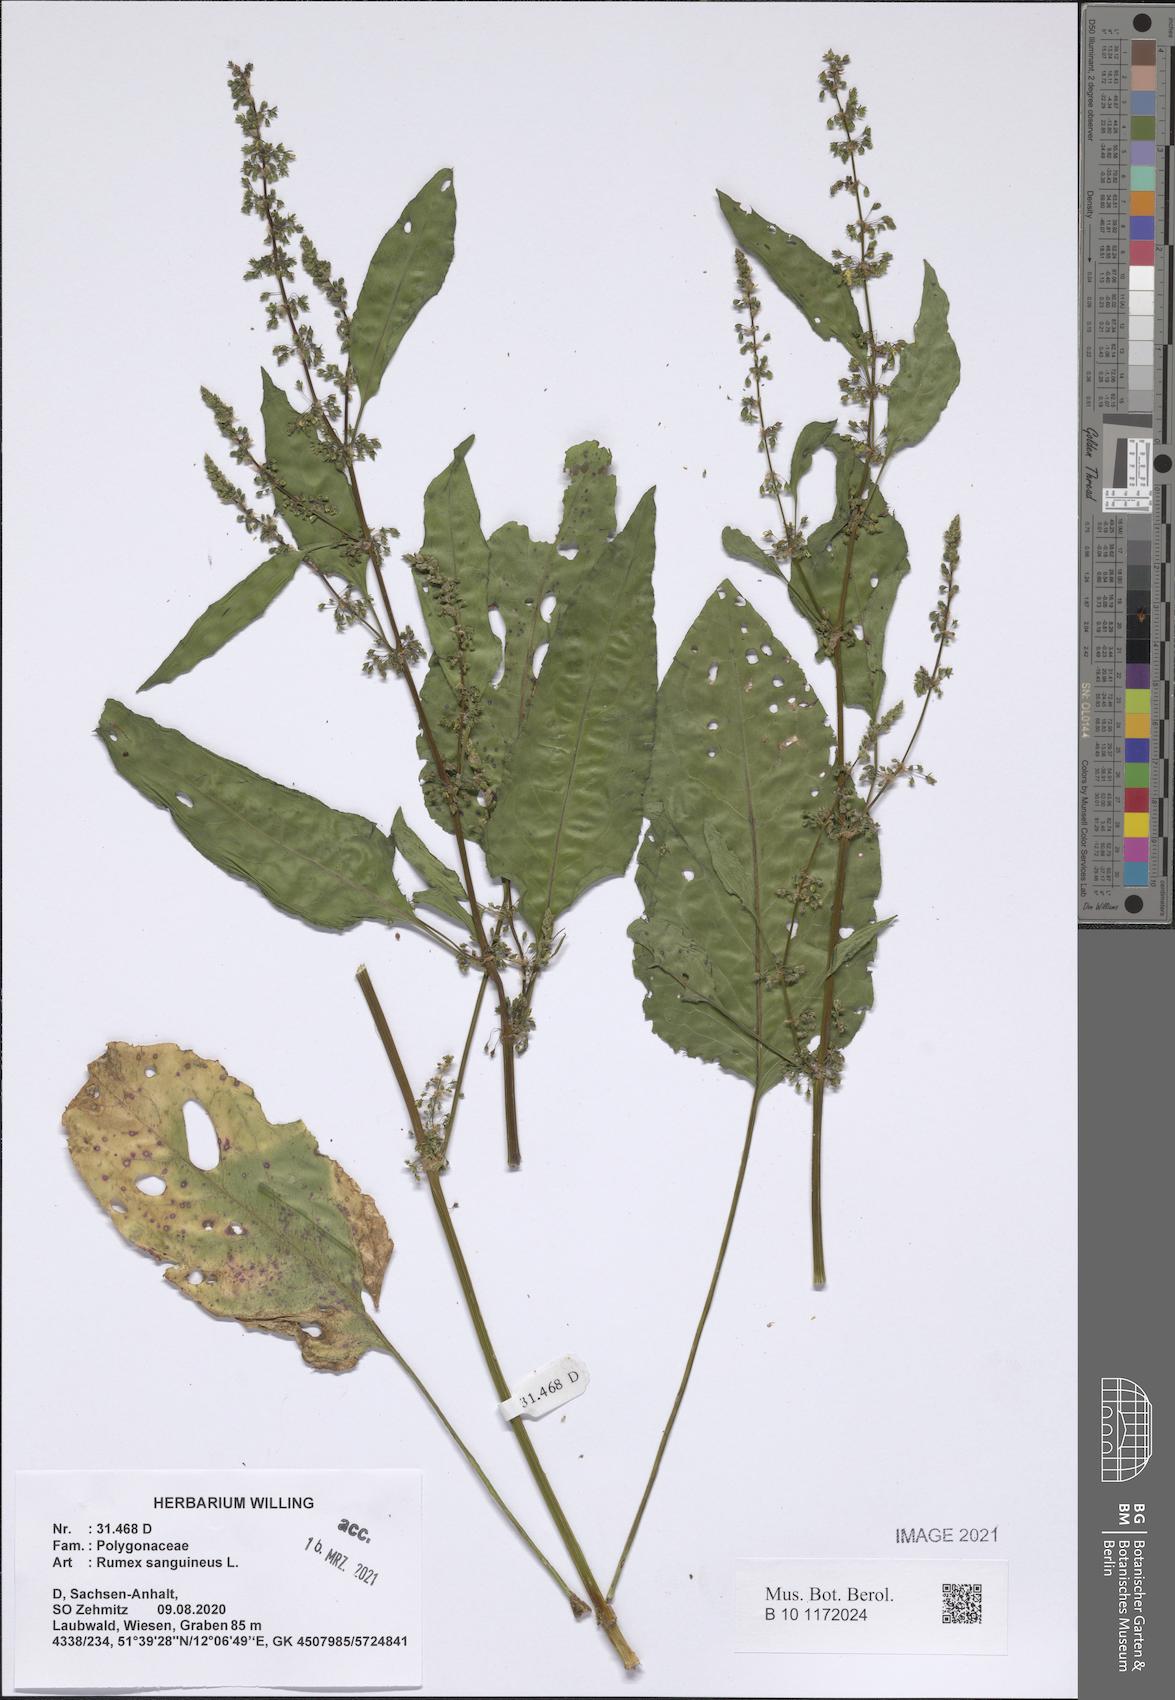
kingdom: Plantae
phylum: Tracheophyta
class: Magnoliopsida
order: Caryophyllales
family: Polygonaceae
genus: Rumex
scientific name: Rumex sanguineus
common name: Wood dock
